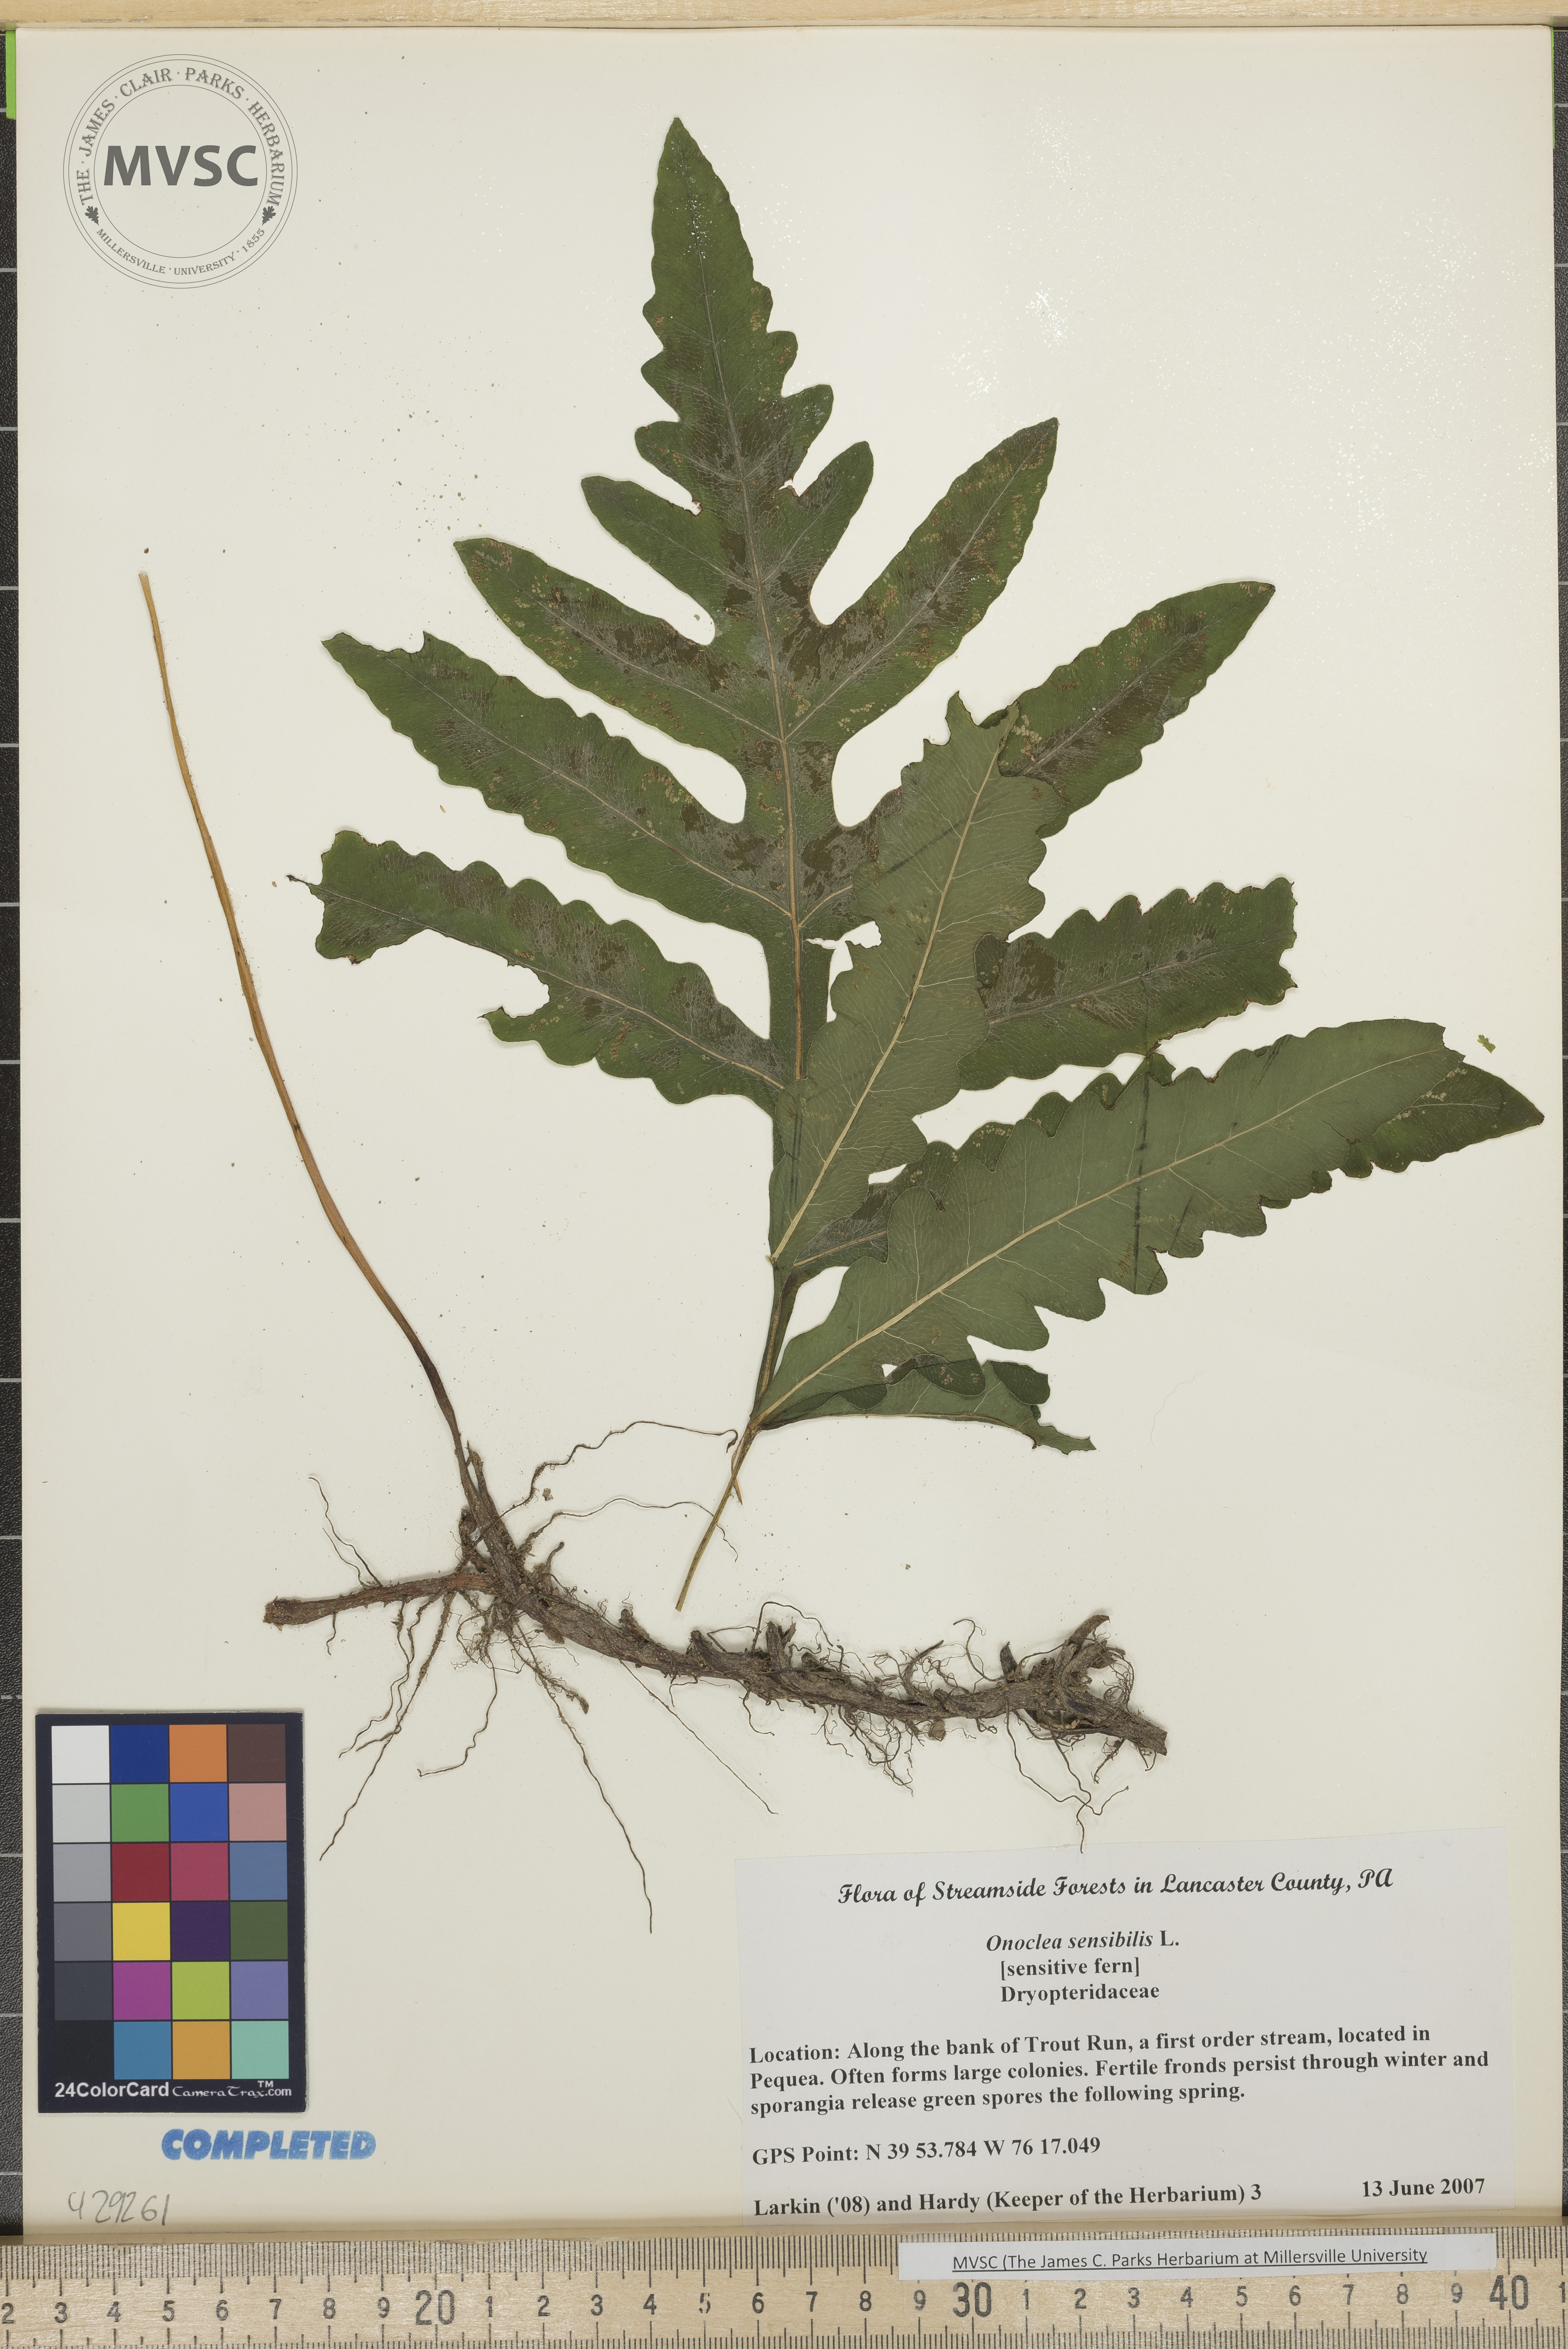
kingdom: Plantae
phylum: Tracheophyta
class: Polypodiopsida
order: Polypodiales
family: Onocleaceae
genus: Onoclea
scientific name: Onoclea sensibilis
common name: Sensitive fern
